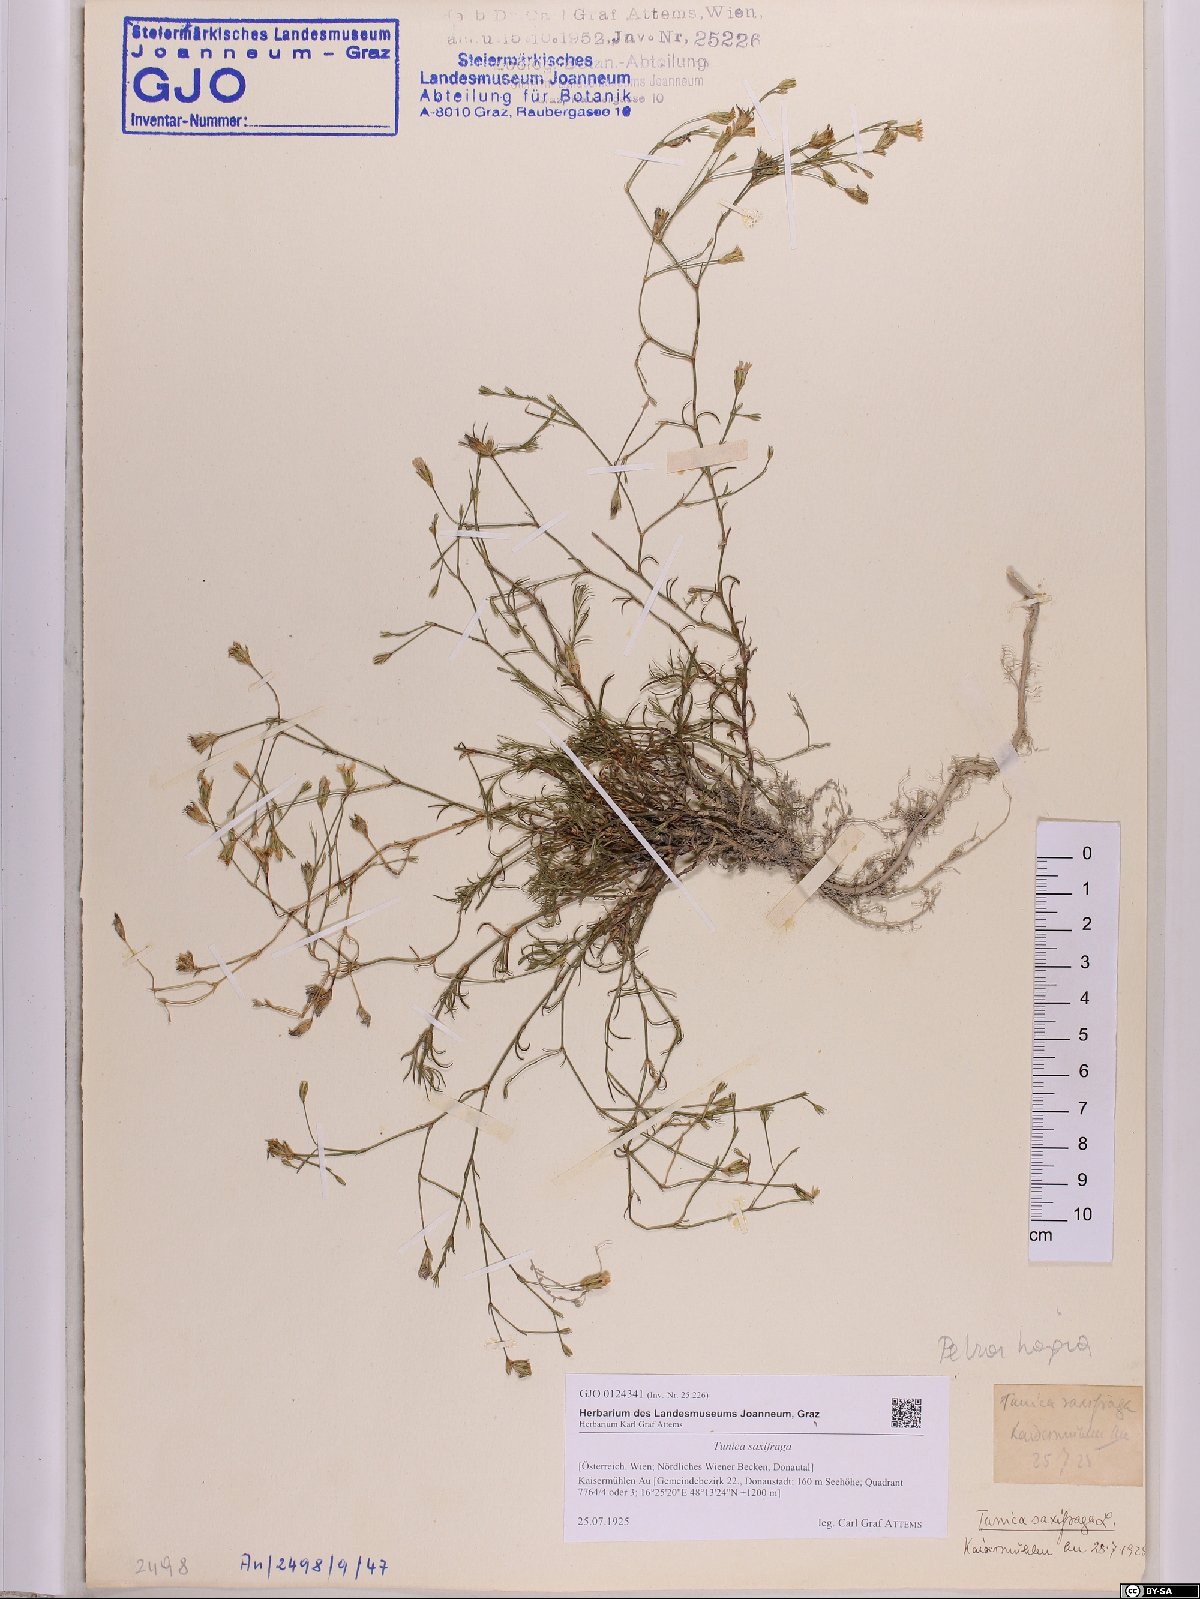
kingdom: Plantae
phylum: Tracheophyta
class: Magnoliopsida
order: Caryophyllales
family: Caryophyllaceae
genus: Petrorhagia
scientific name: Petrorhagia saxifraga
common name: Tunicflower
